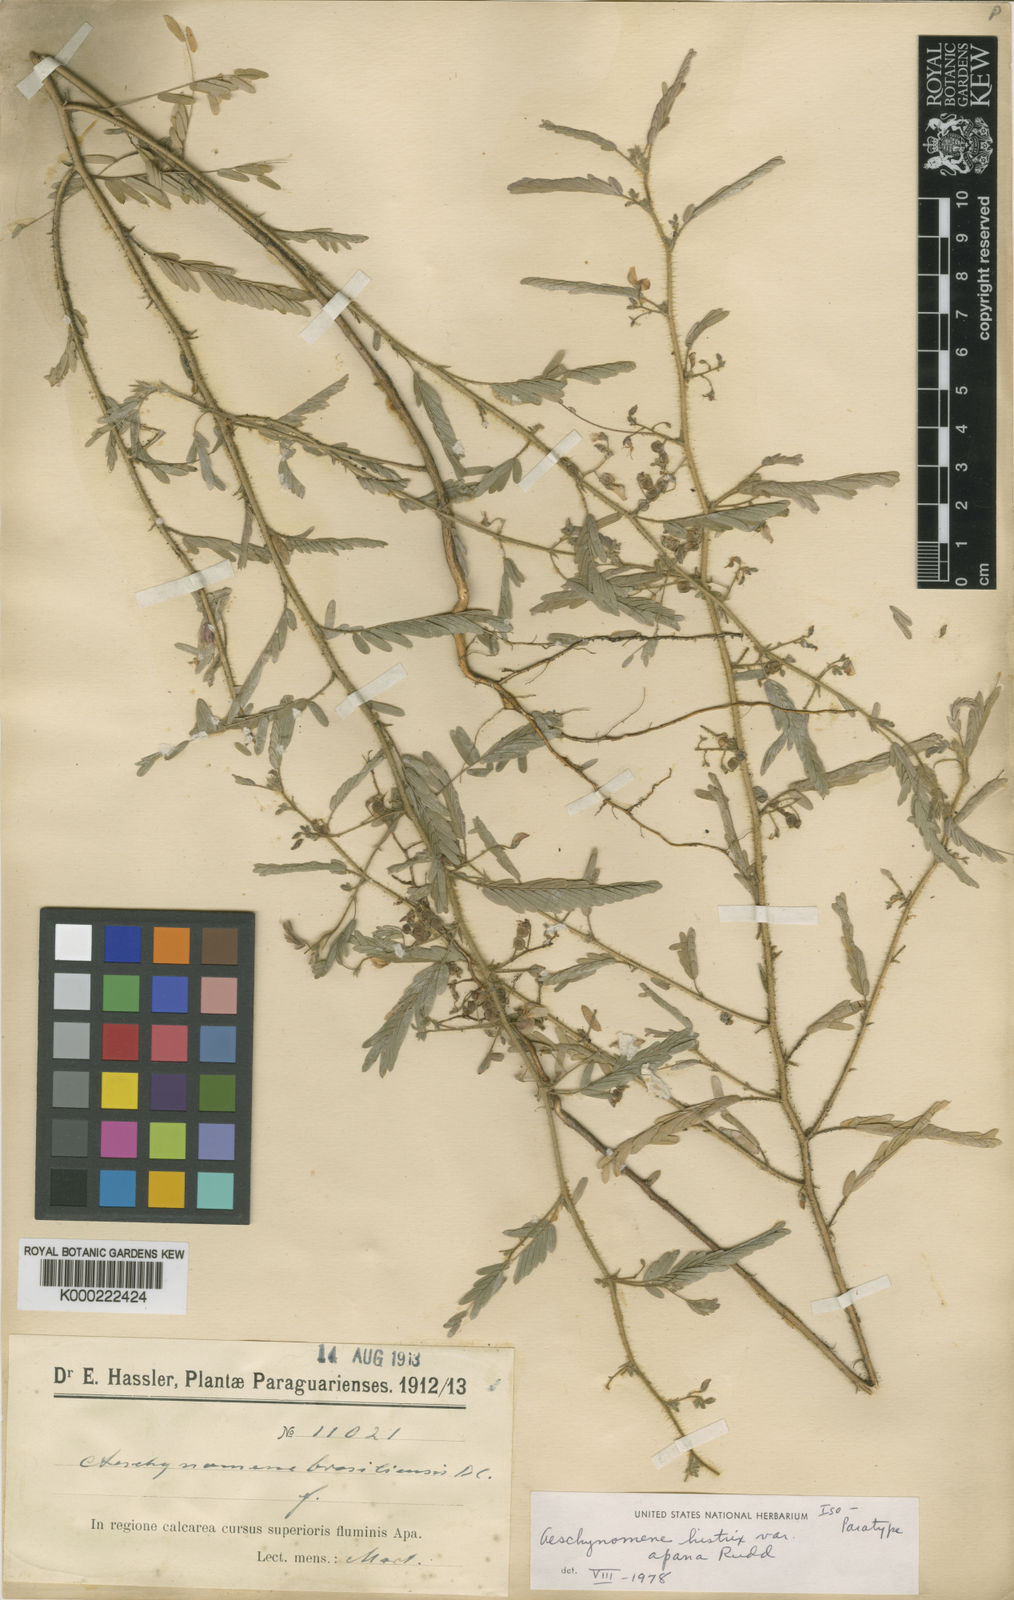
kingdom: Plantae
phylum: Tracheophyta
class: Magnoliopsida
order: Fabales
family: Fabaceae
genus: Ctenodon
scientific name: Ctenodon histrix
